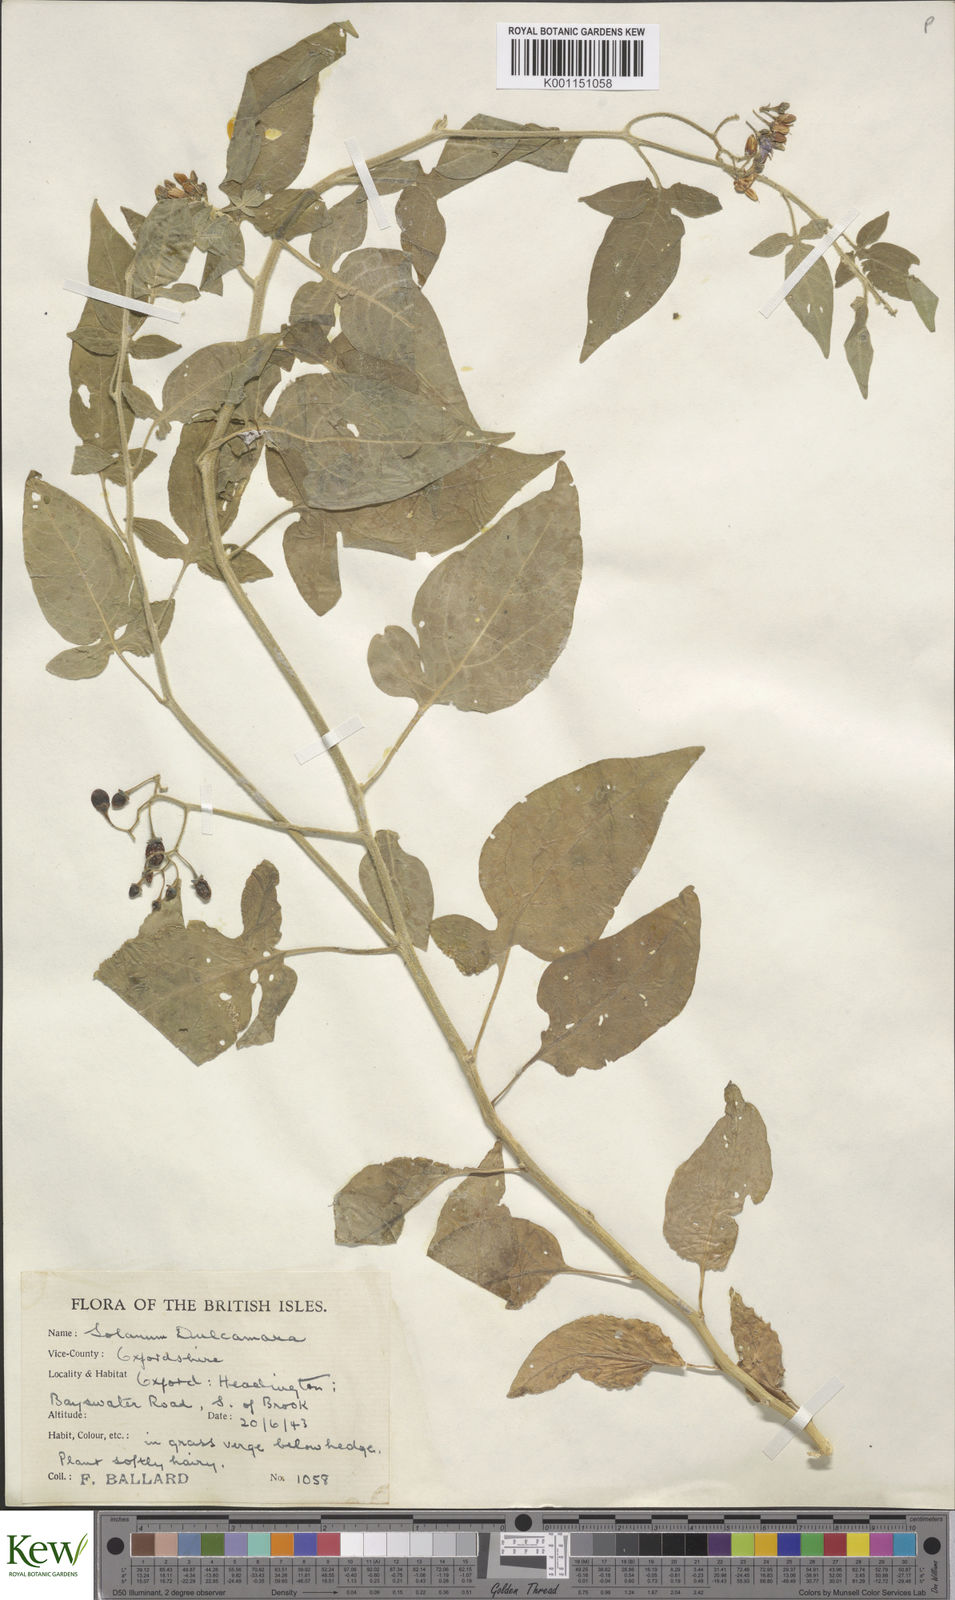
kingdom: Plantae
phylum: Tracheophyta
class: Magnoliopsida
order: Solanales
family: Solanaceae
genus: Solanum
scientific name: Solanum dulcamara
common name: Climbing nightshade
